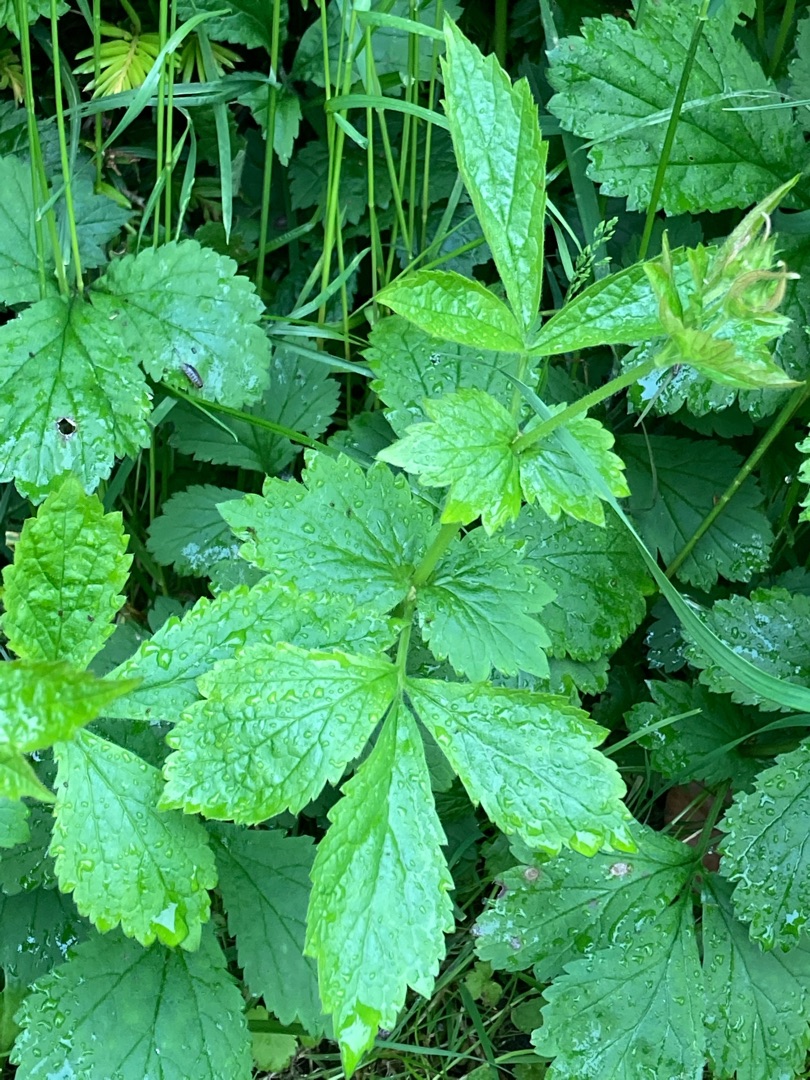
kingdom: Plantae
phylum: Tracheophyta
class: Magnoliopsida
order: Rosales
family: Rosaceae
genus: Geum
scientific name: Geum urbanum
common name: Feber-nellikerod
